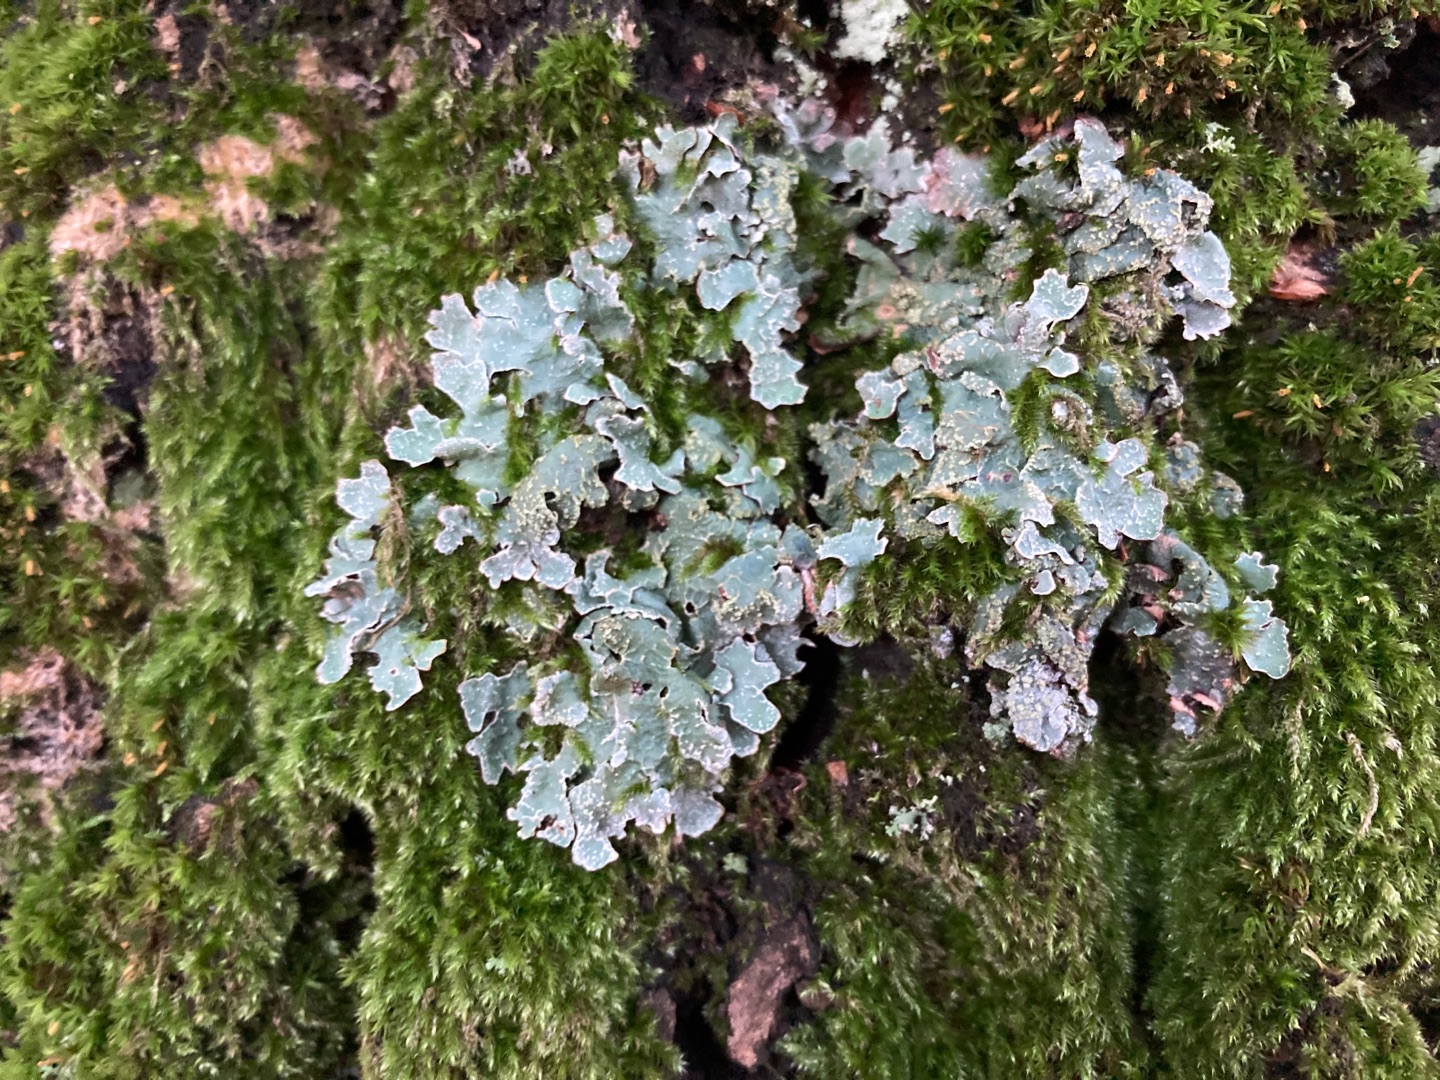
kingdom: Fungi
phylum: Ascomycota
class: Lecanoromycetes
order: Lecanorales
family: Parmeliaceae
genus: Parmelia
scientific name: Parmelia sulcata
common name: Rynket skållav
